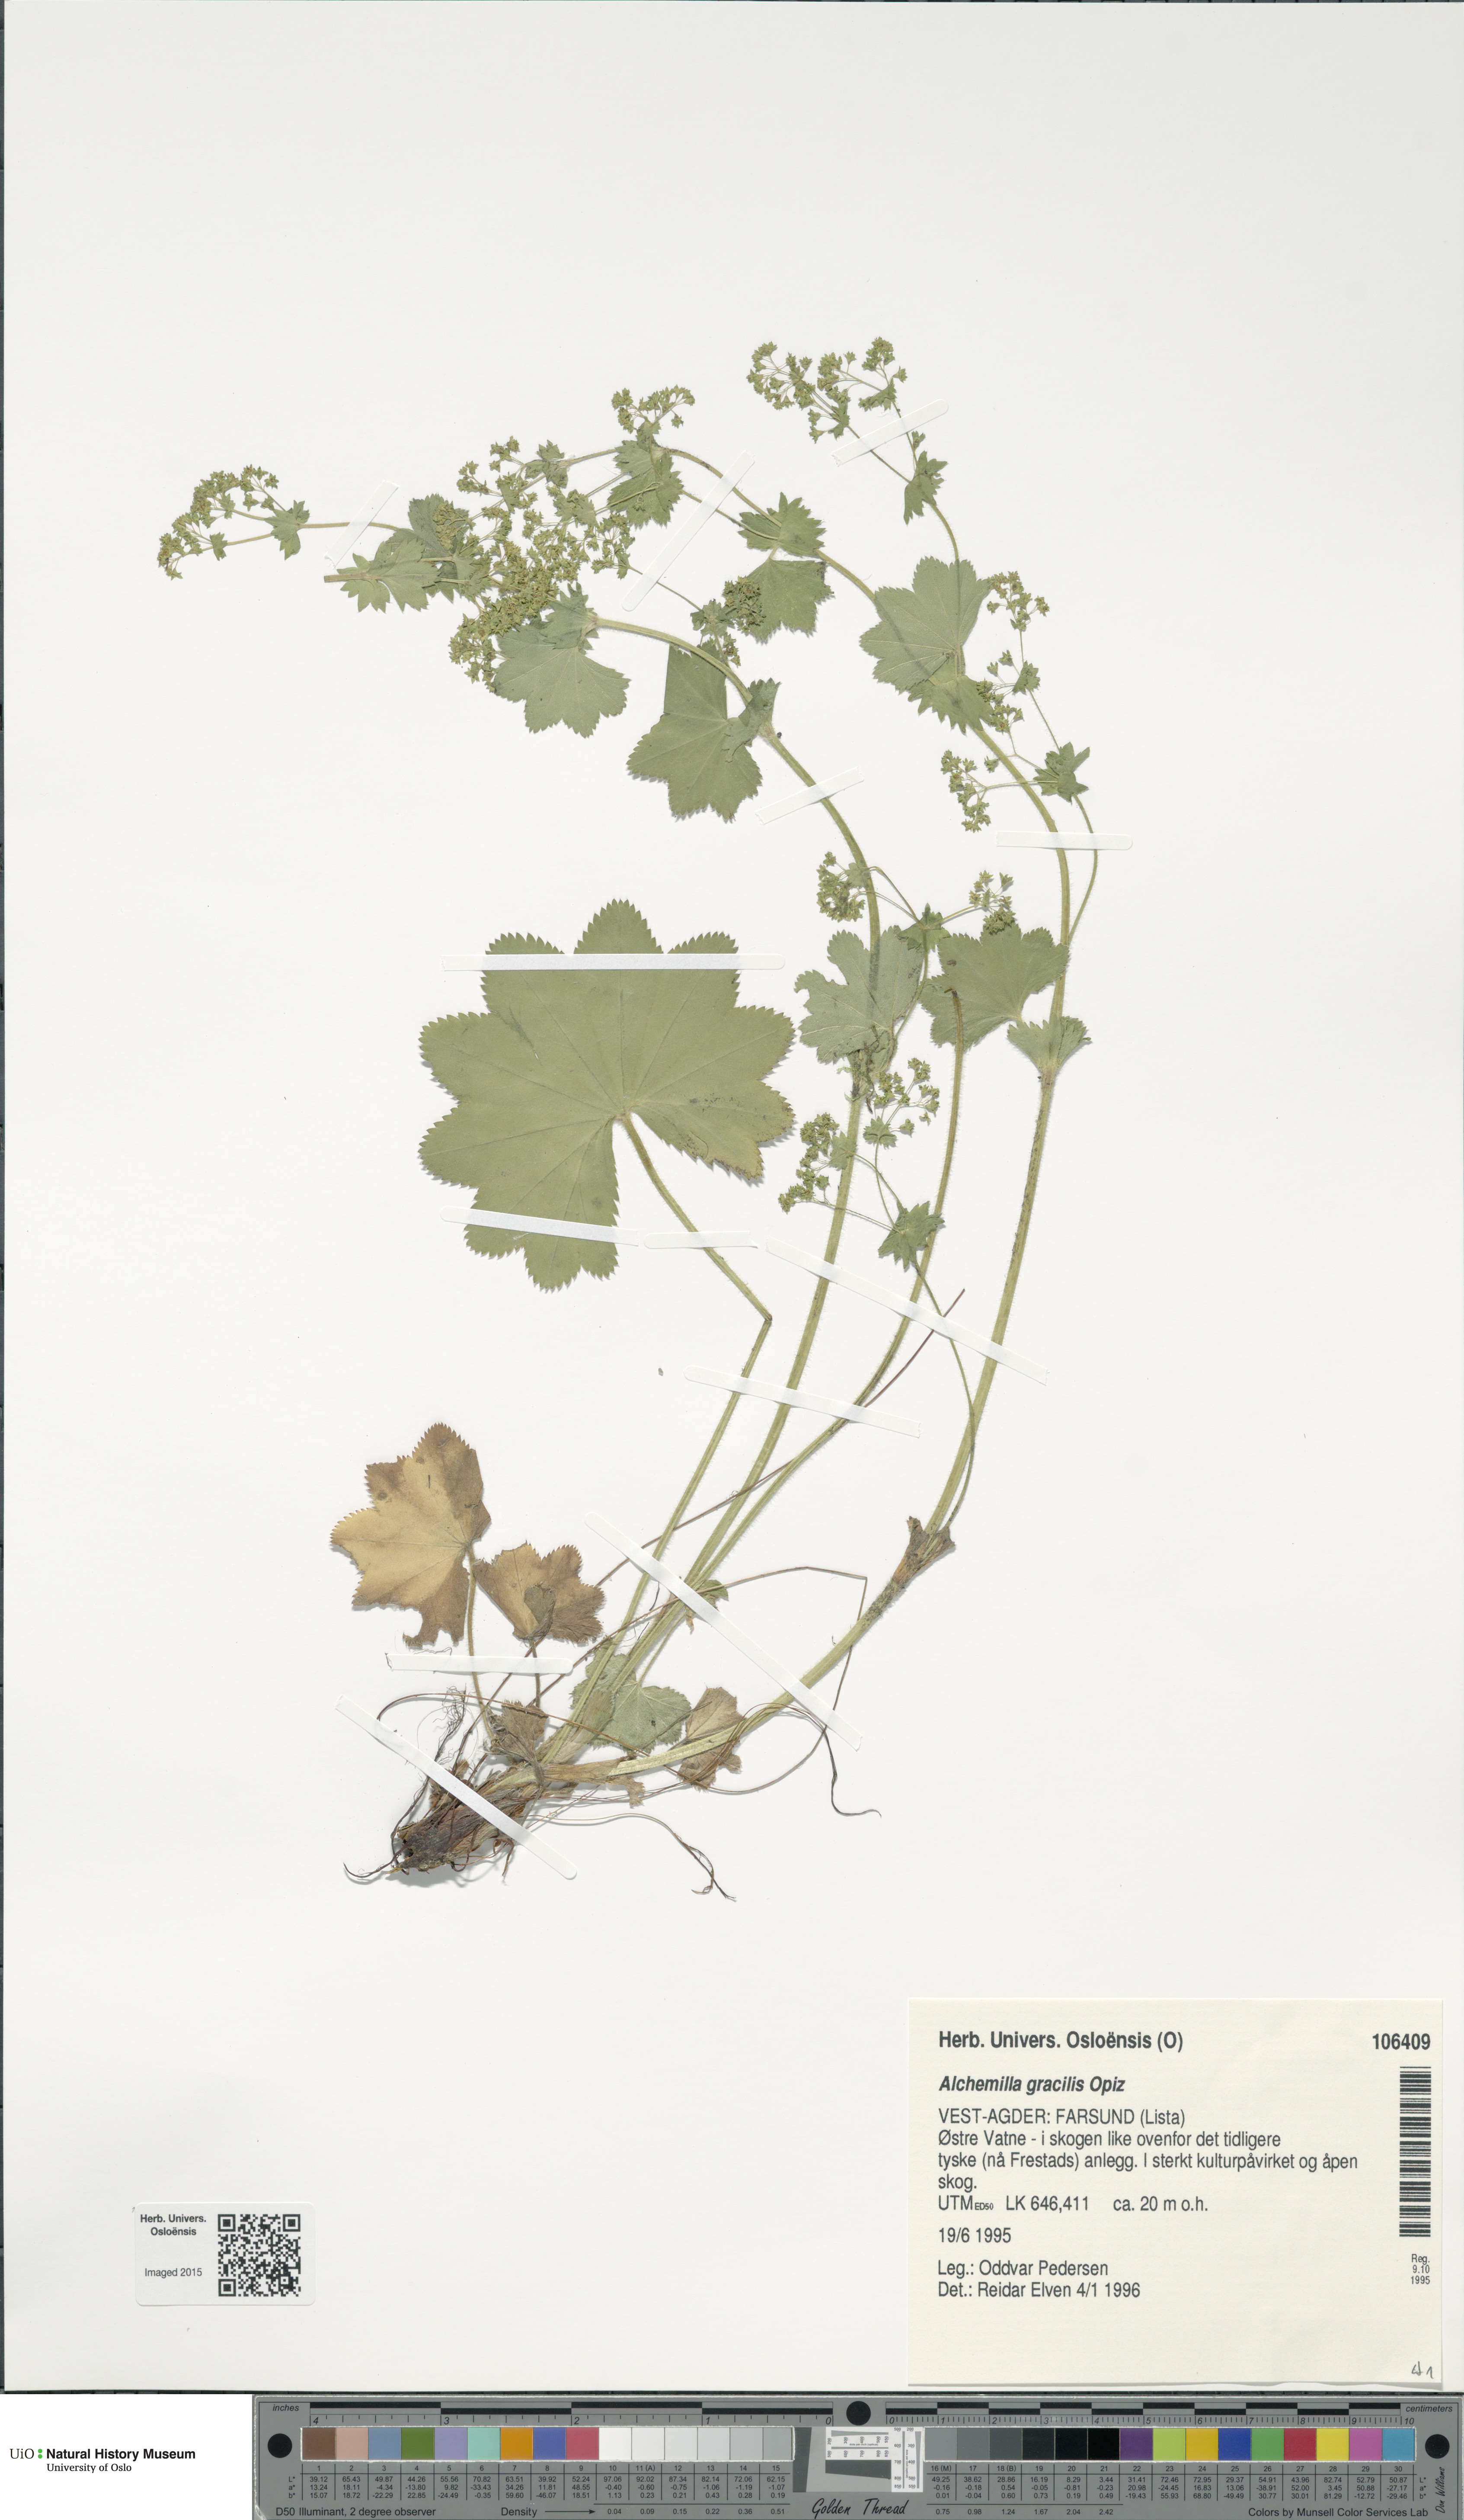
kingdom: Plantae
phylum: Tracheophyta
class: Magnoliopsida
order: Rosales
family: Rosaceae
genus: Alchemilla
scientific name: Alchemilla micans
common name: Gleaming lady's mantle
